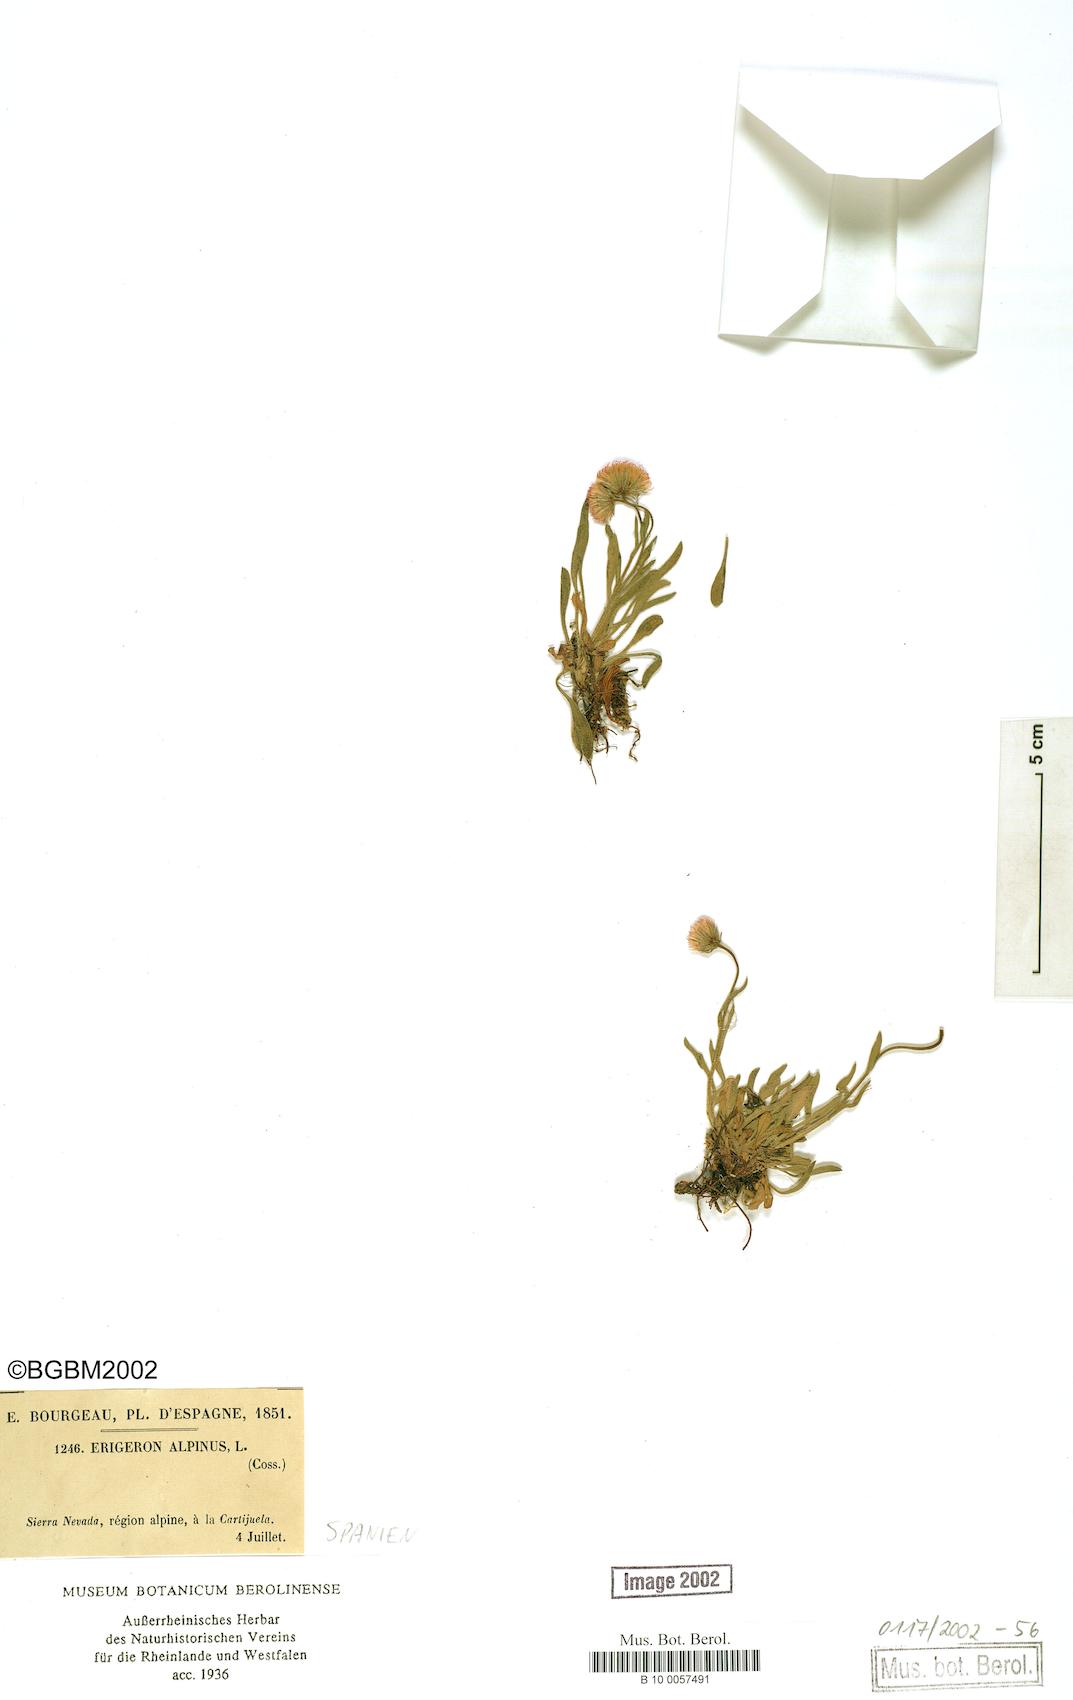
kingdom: Plantae
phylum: Tracheophyta
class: Magnoliopsida
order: Asterales
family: Asteraceae
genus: Erigeron
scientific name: Erigeron alpinus
